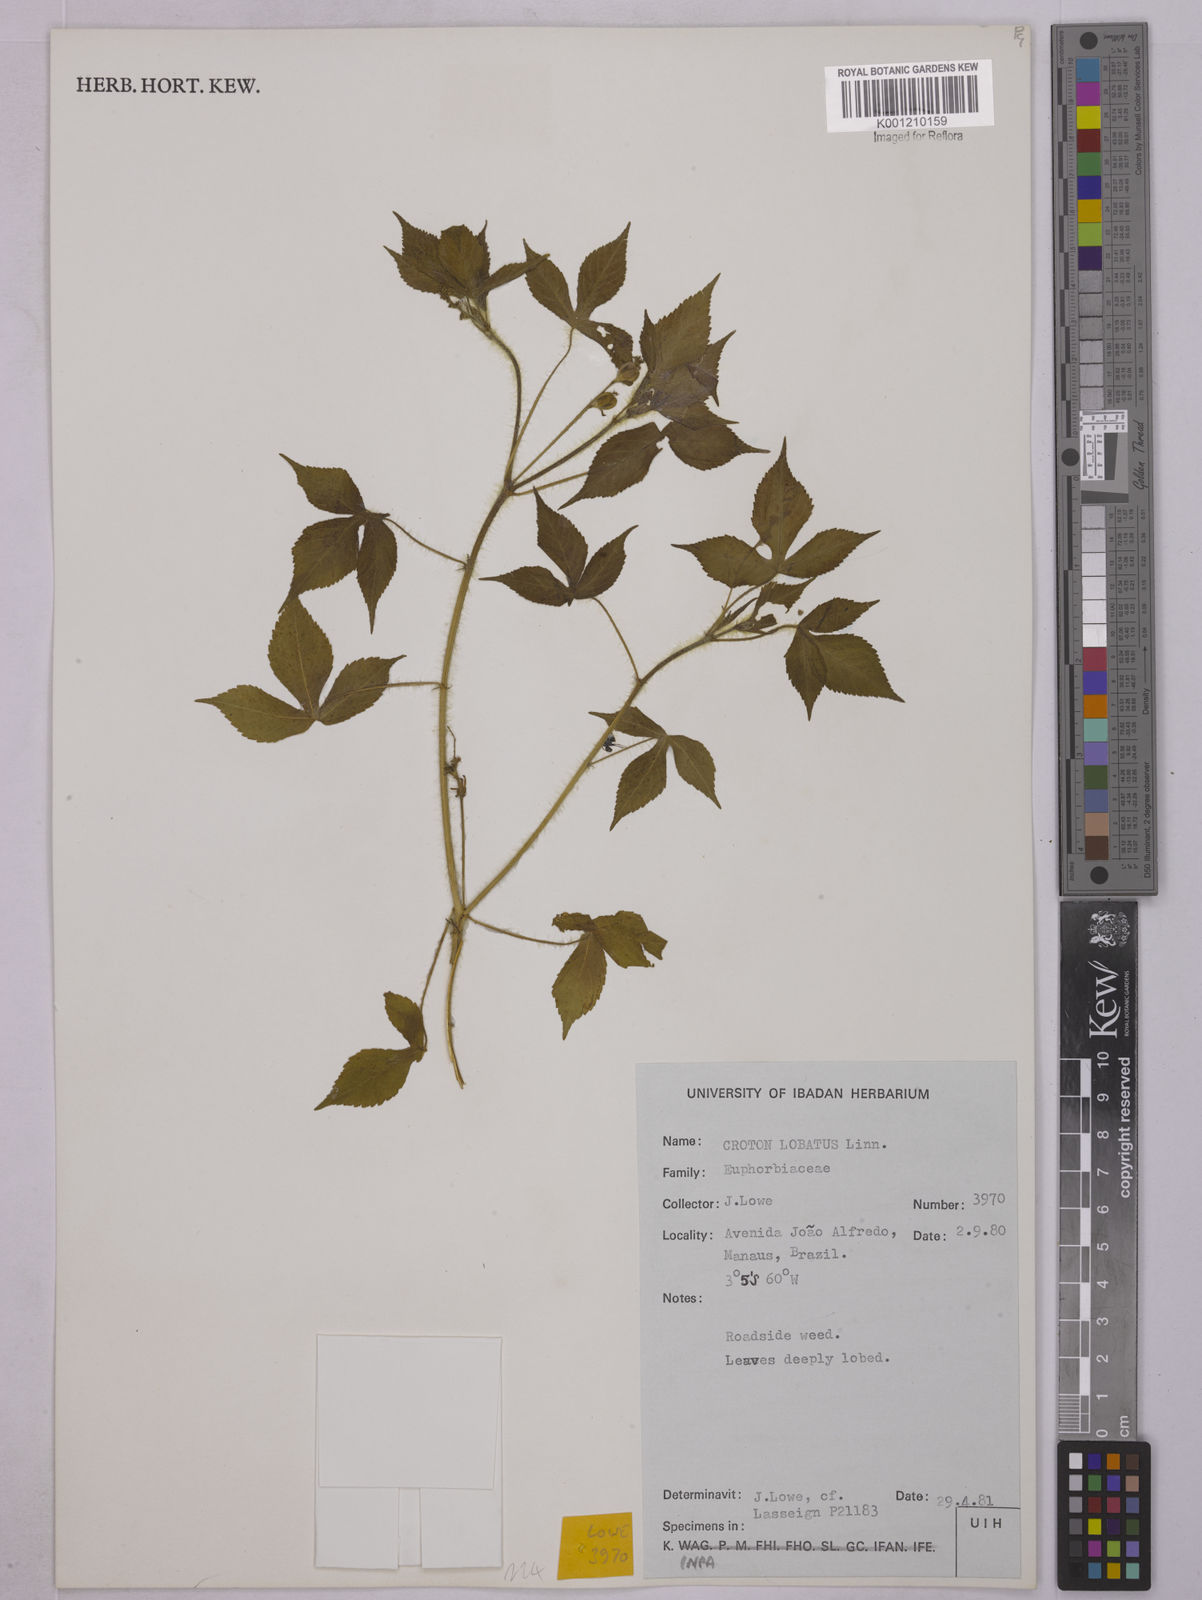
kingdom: Plantae
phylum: Tracheophyta
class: Magnoliopsida
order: Malpighiales
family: Euphorbiaceae
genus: Astraea
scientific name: Astraea lobata
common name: Lobed croton
